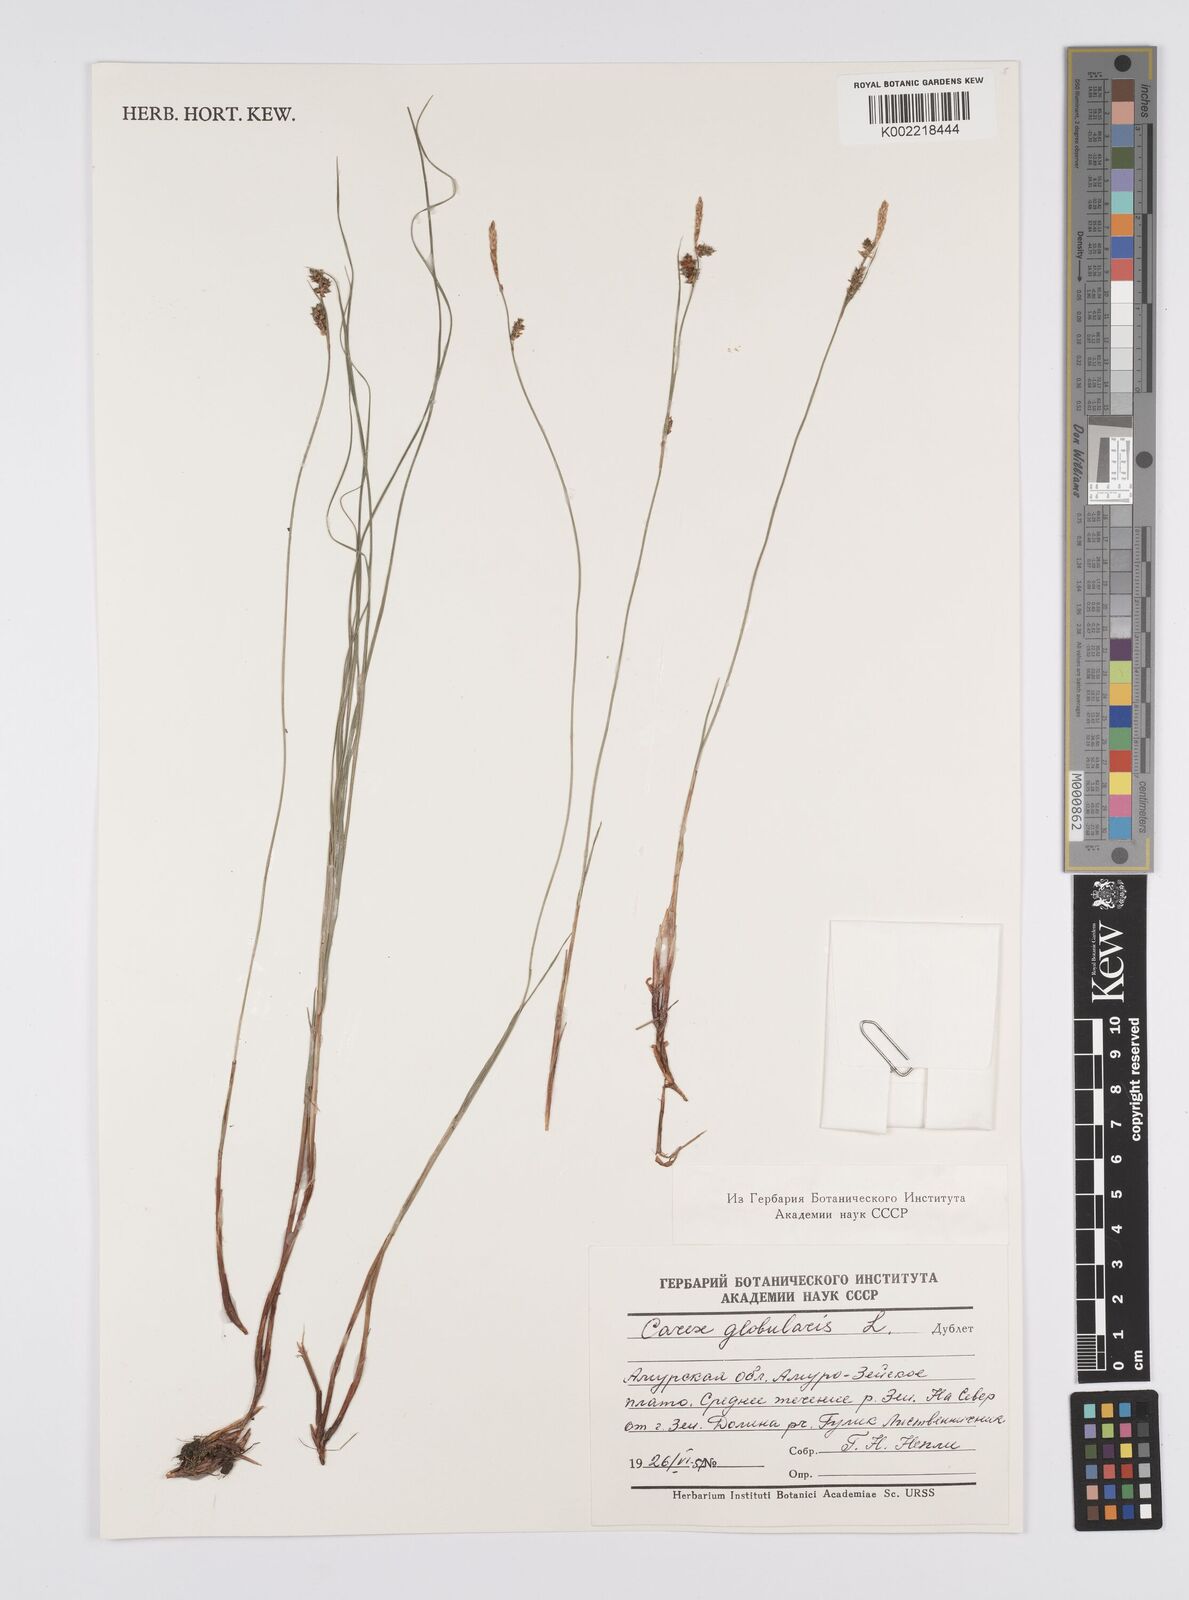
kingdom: Plantae
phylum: Tracheophyta
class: Liliopsida
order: Poales
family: Cyperaceae
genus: Carex
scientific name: Carex globularis
